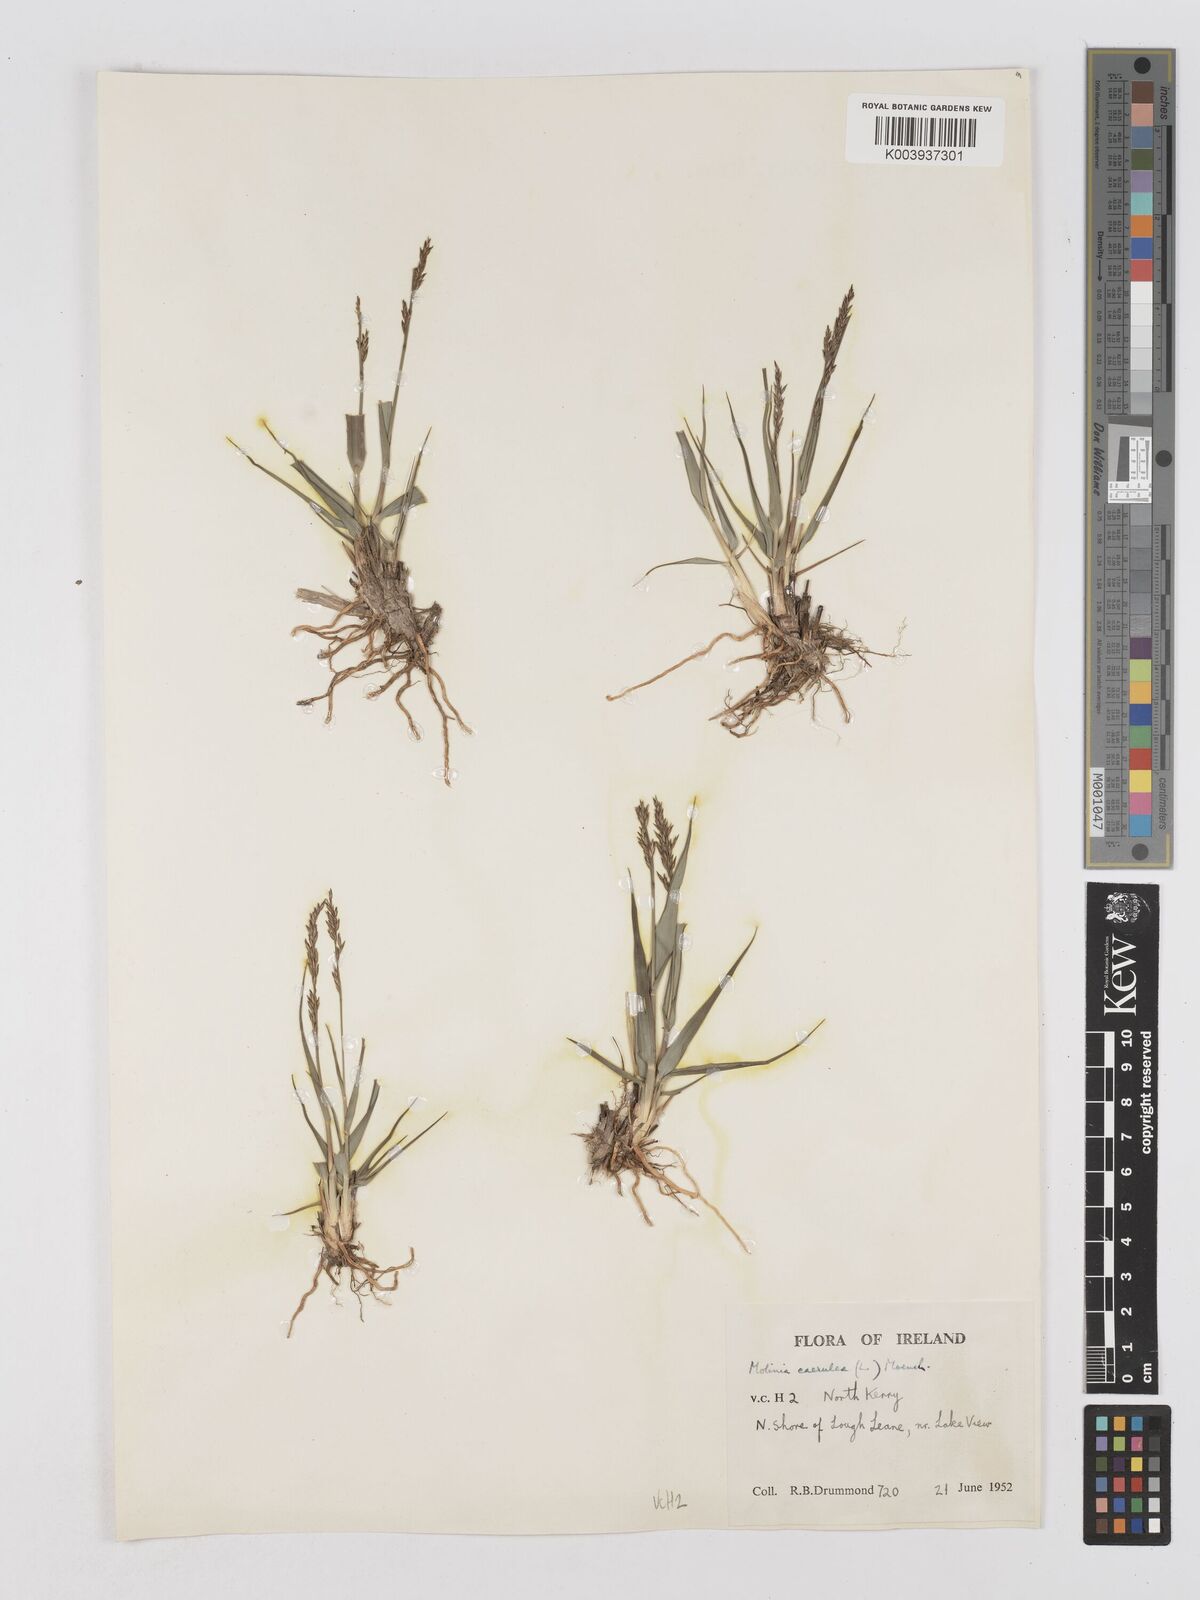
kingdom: Plantae
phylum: Tracheophyta
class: Liliopsida
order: Poales
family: Poaceae
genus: Molinia
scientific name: Molinia caerulea
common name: Purple moor-grass
